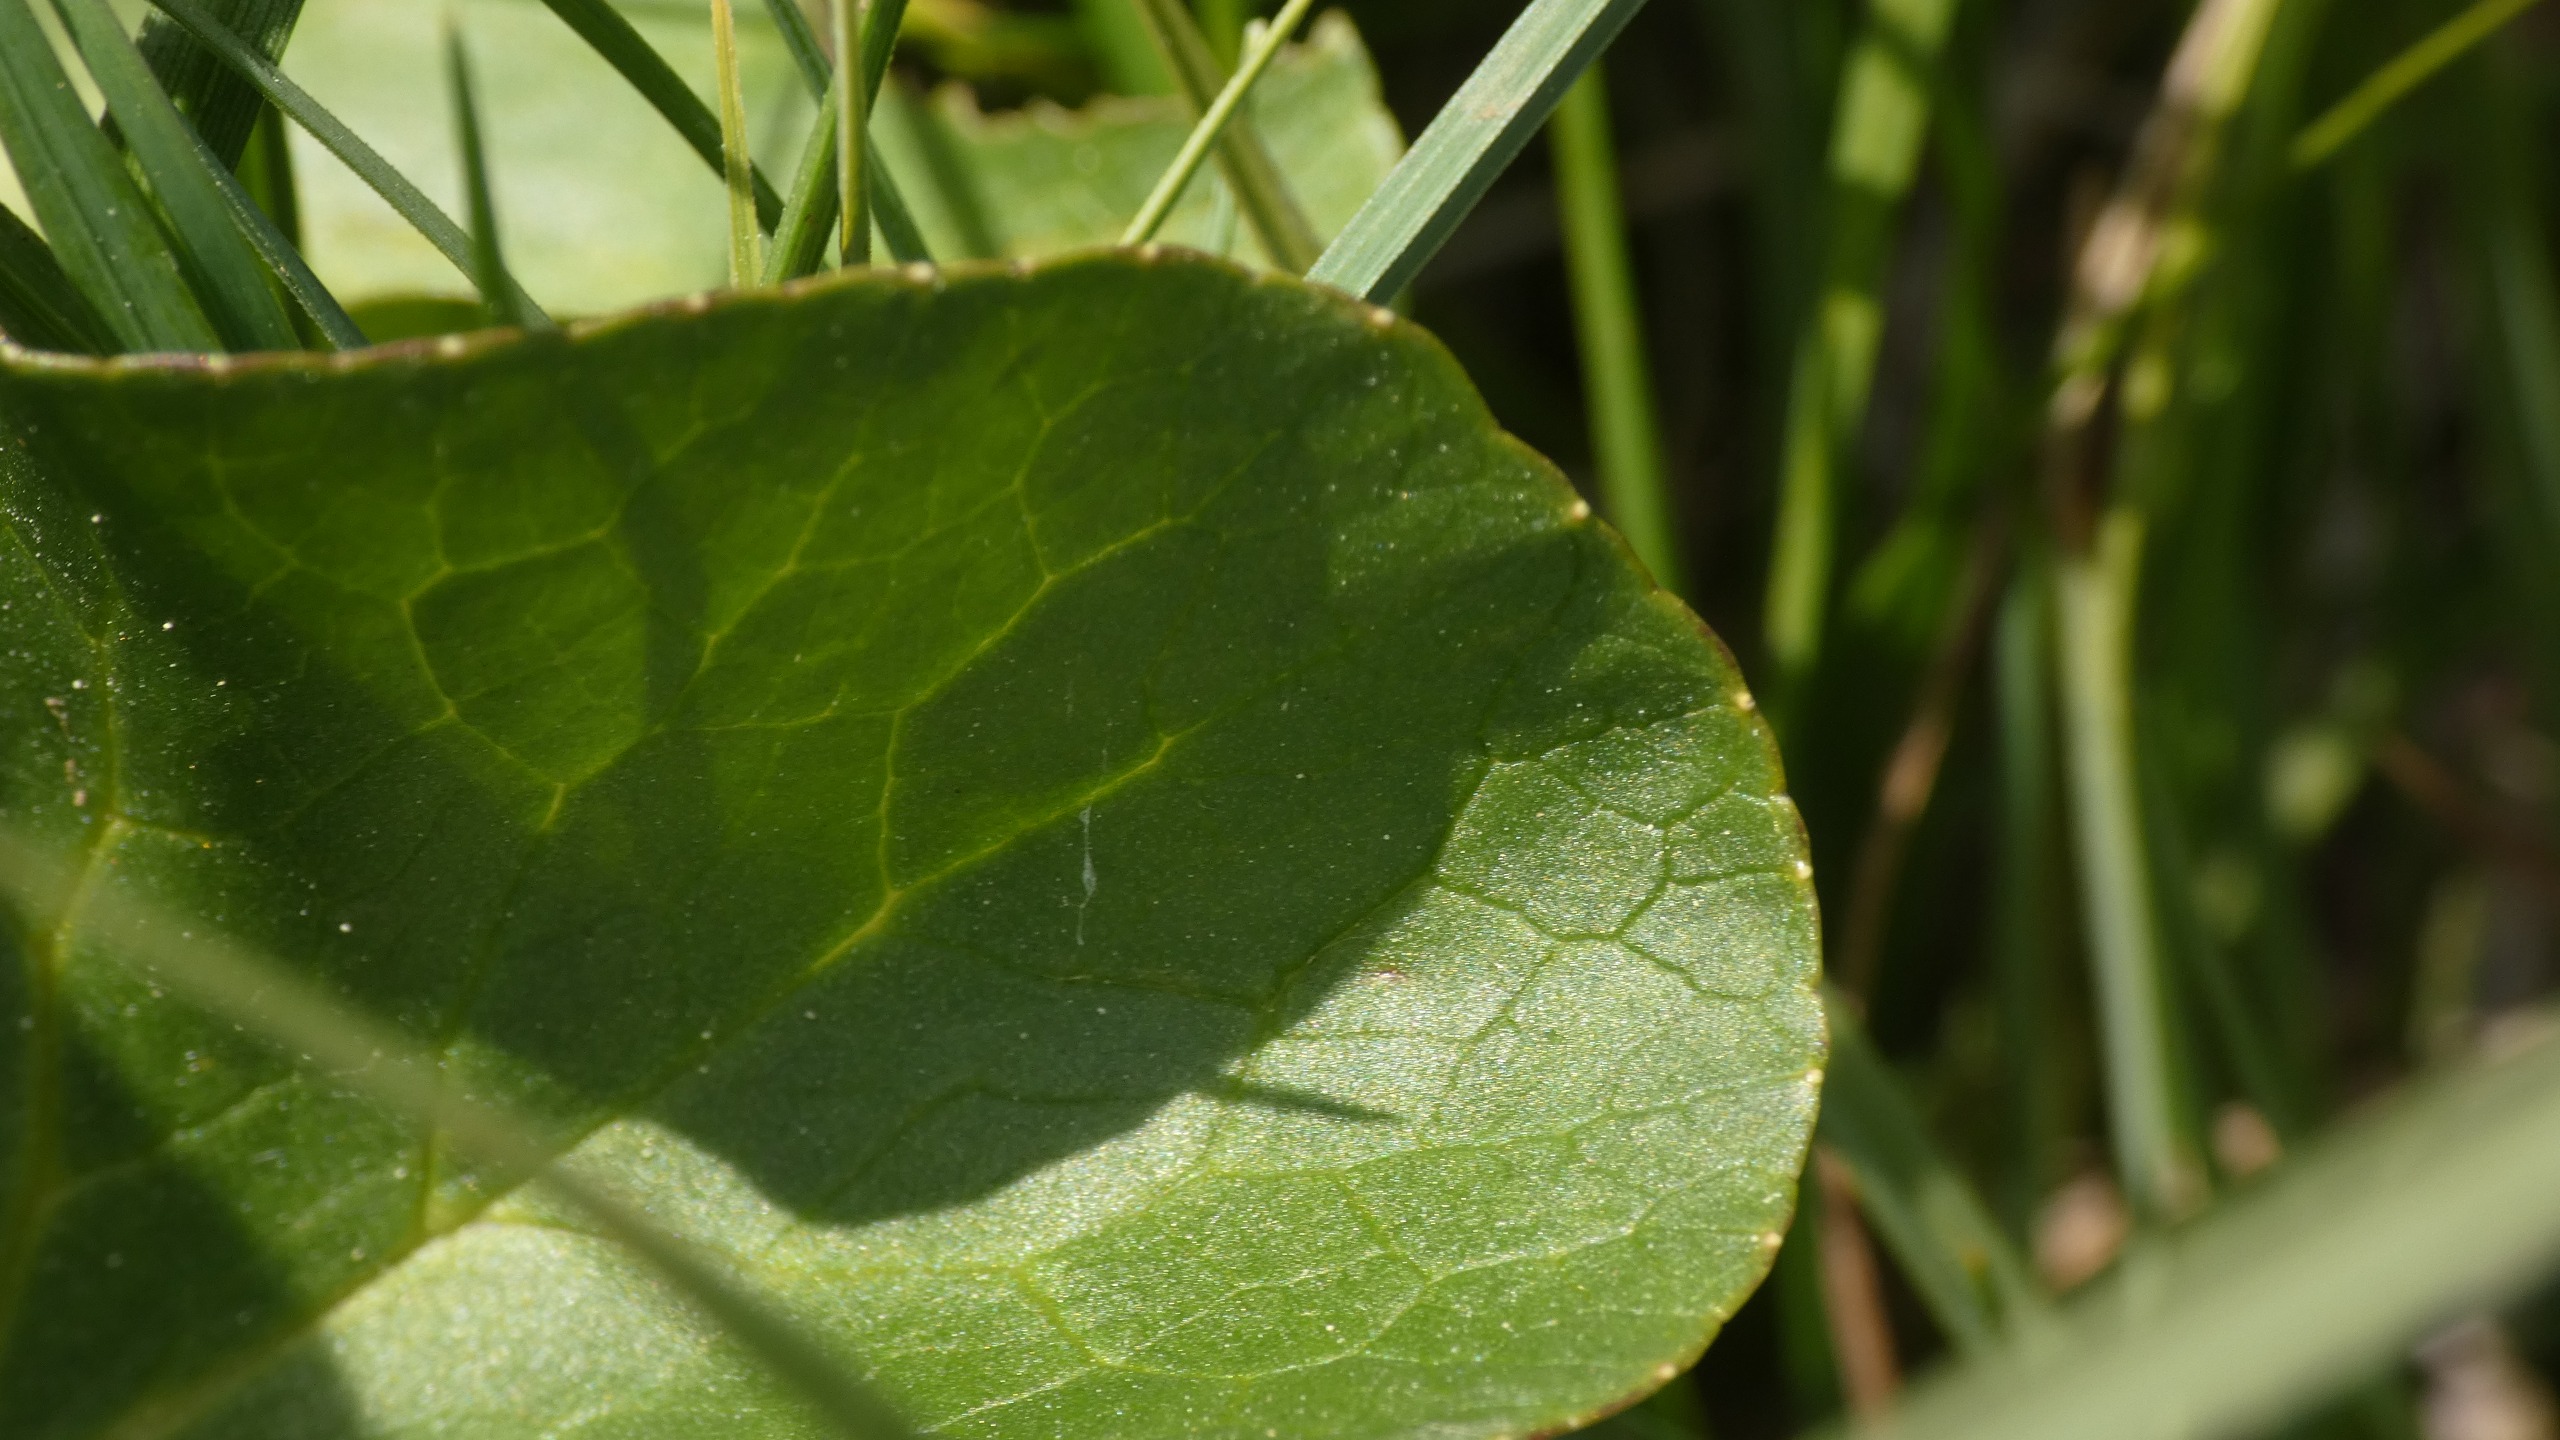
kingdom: Plantae
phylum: Tracheophyta
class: Magnoliopsida
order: Ranunculales
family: Ranunculaceae
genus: Caltha
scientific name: Caltha palustris
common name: Eng-kabbeleje
